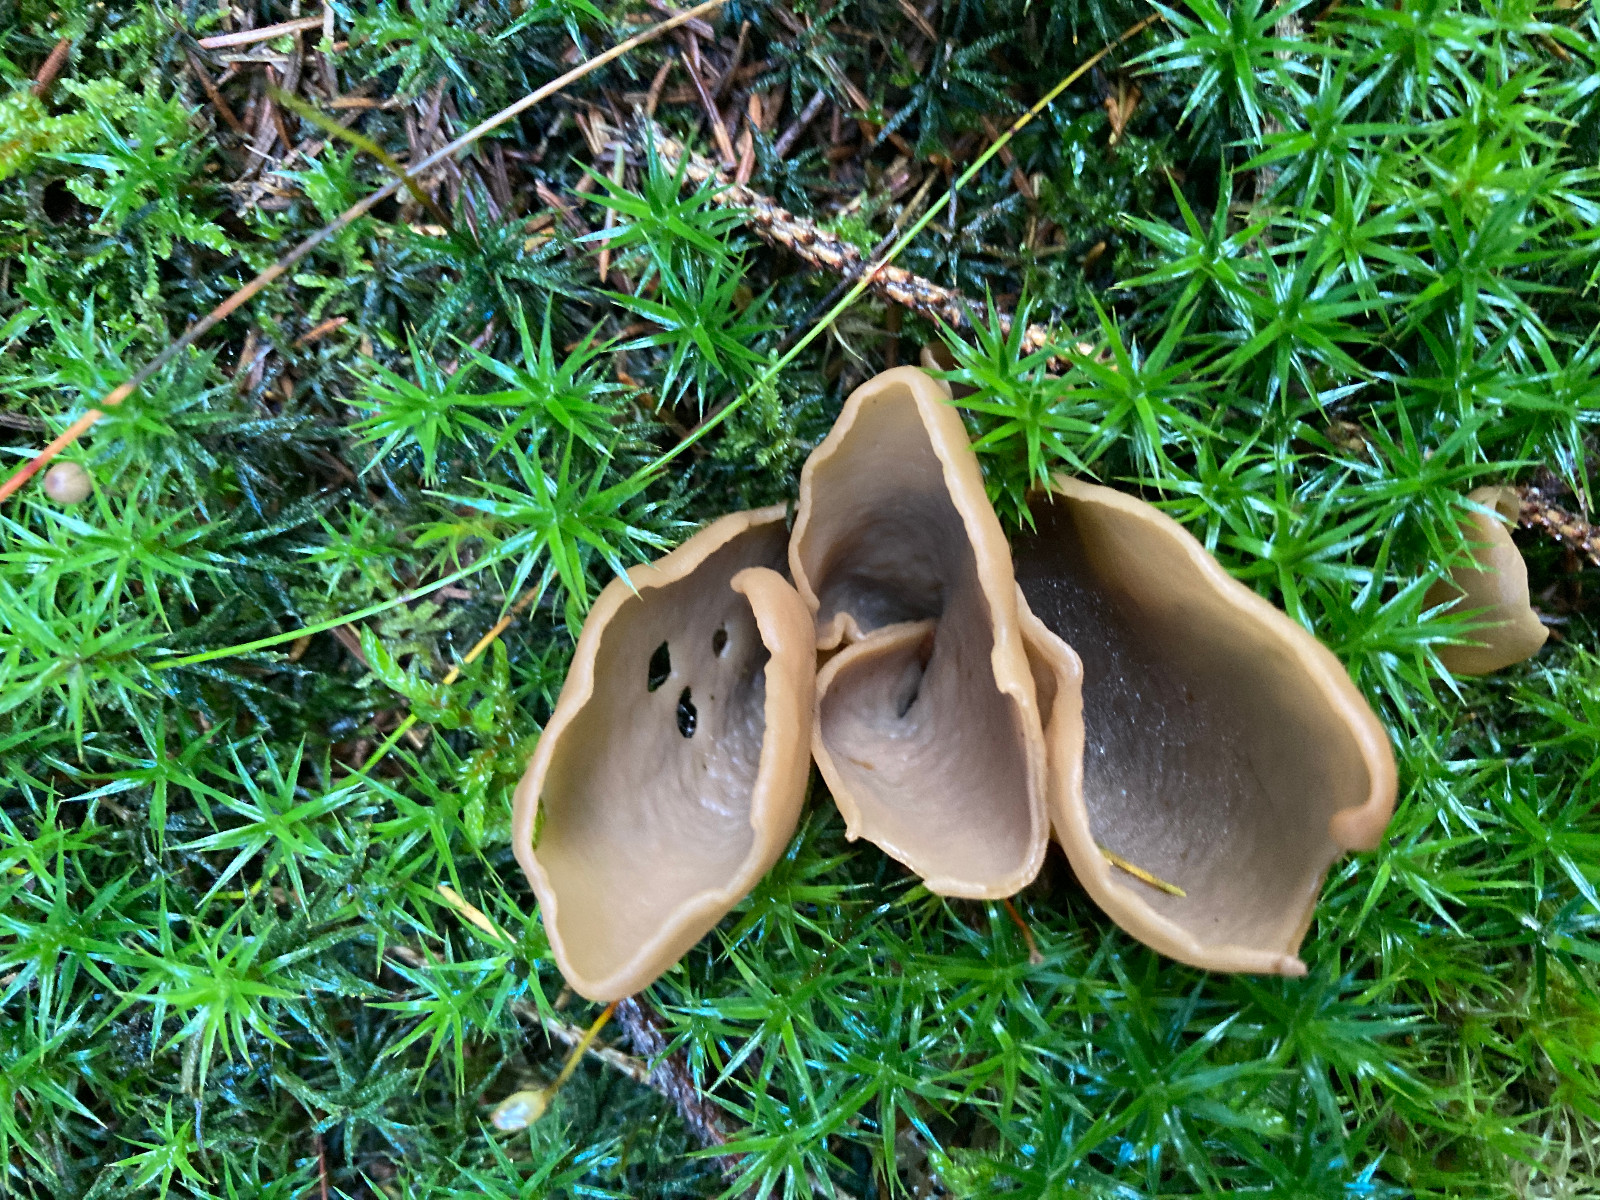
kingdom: Fungi
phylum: Ascomycota
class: Pezizomycetes
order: Pezizales
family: Otideaceae
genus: Otidea
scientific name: Otidea
